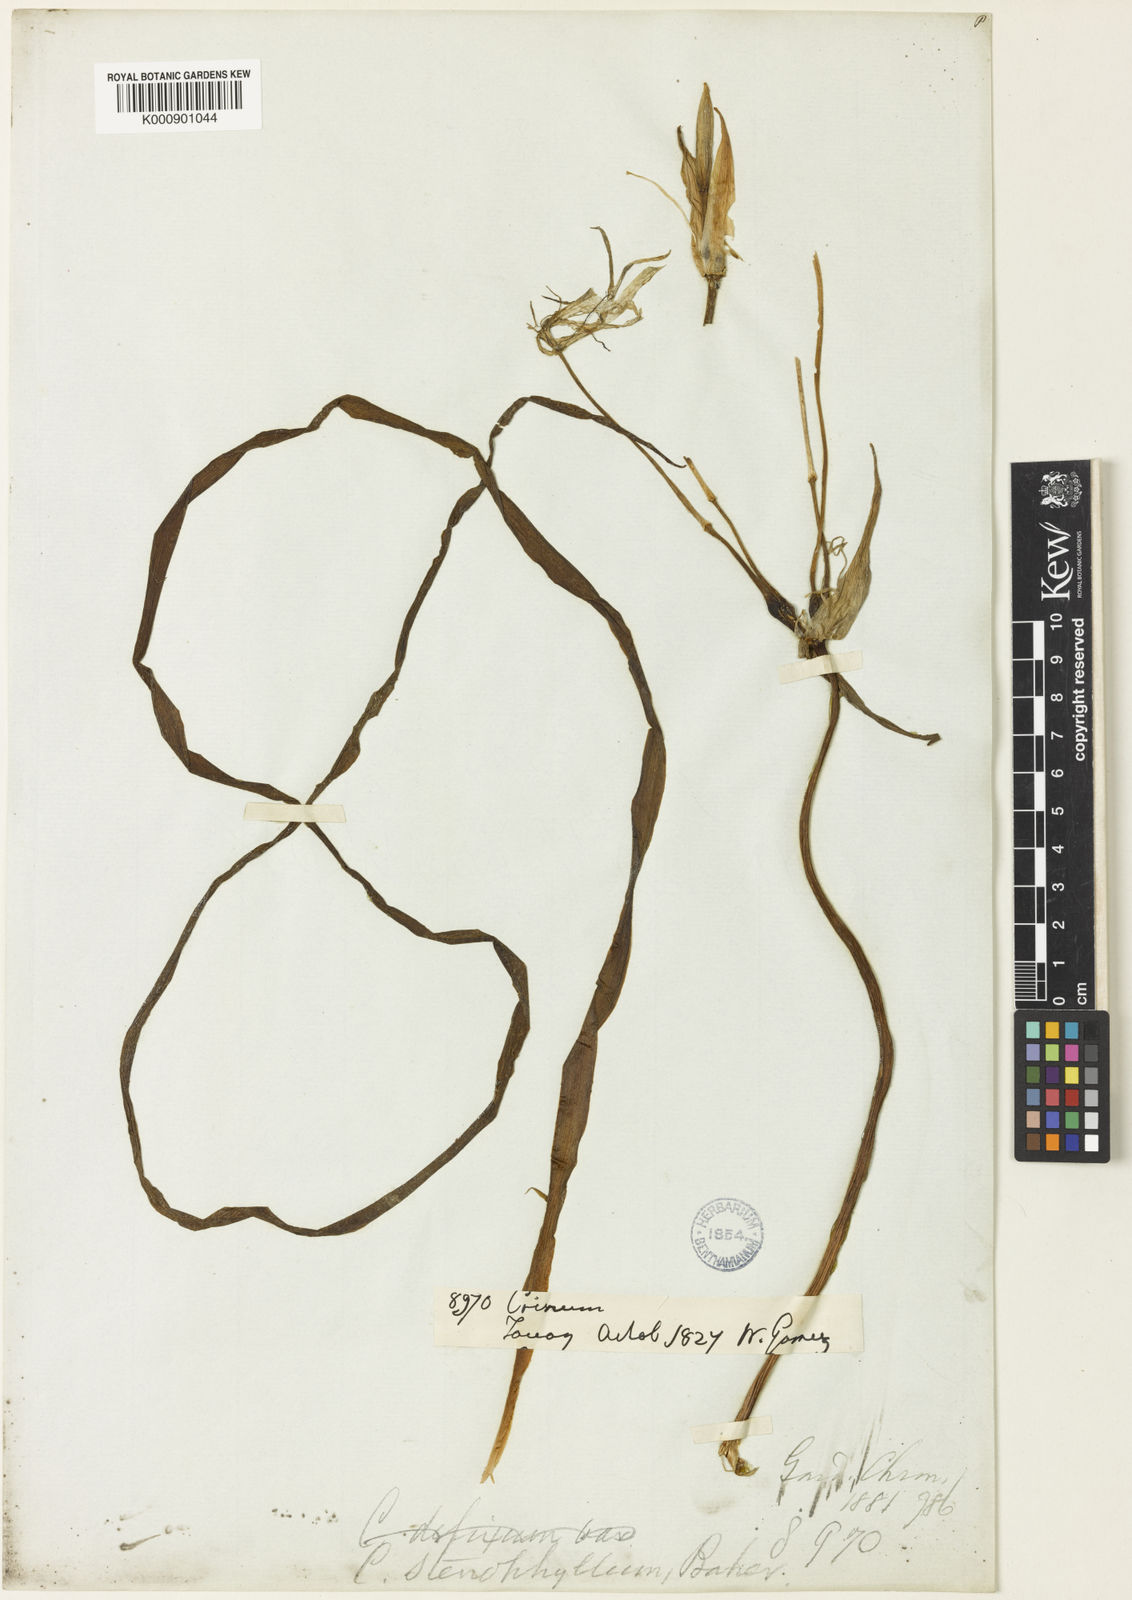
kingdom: Plantae
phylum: Tracheophyta
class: Liliopsida
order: Asparagales
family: Amaryllidaceae
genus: Crinum
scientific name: Crinum stenophyllum
